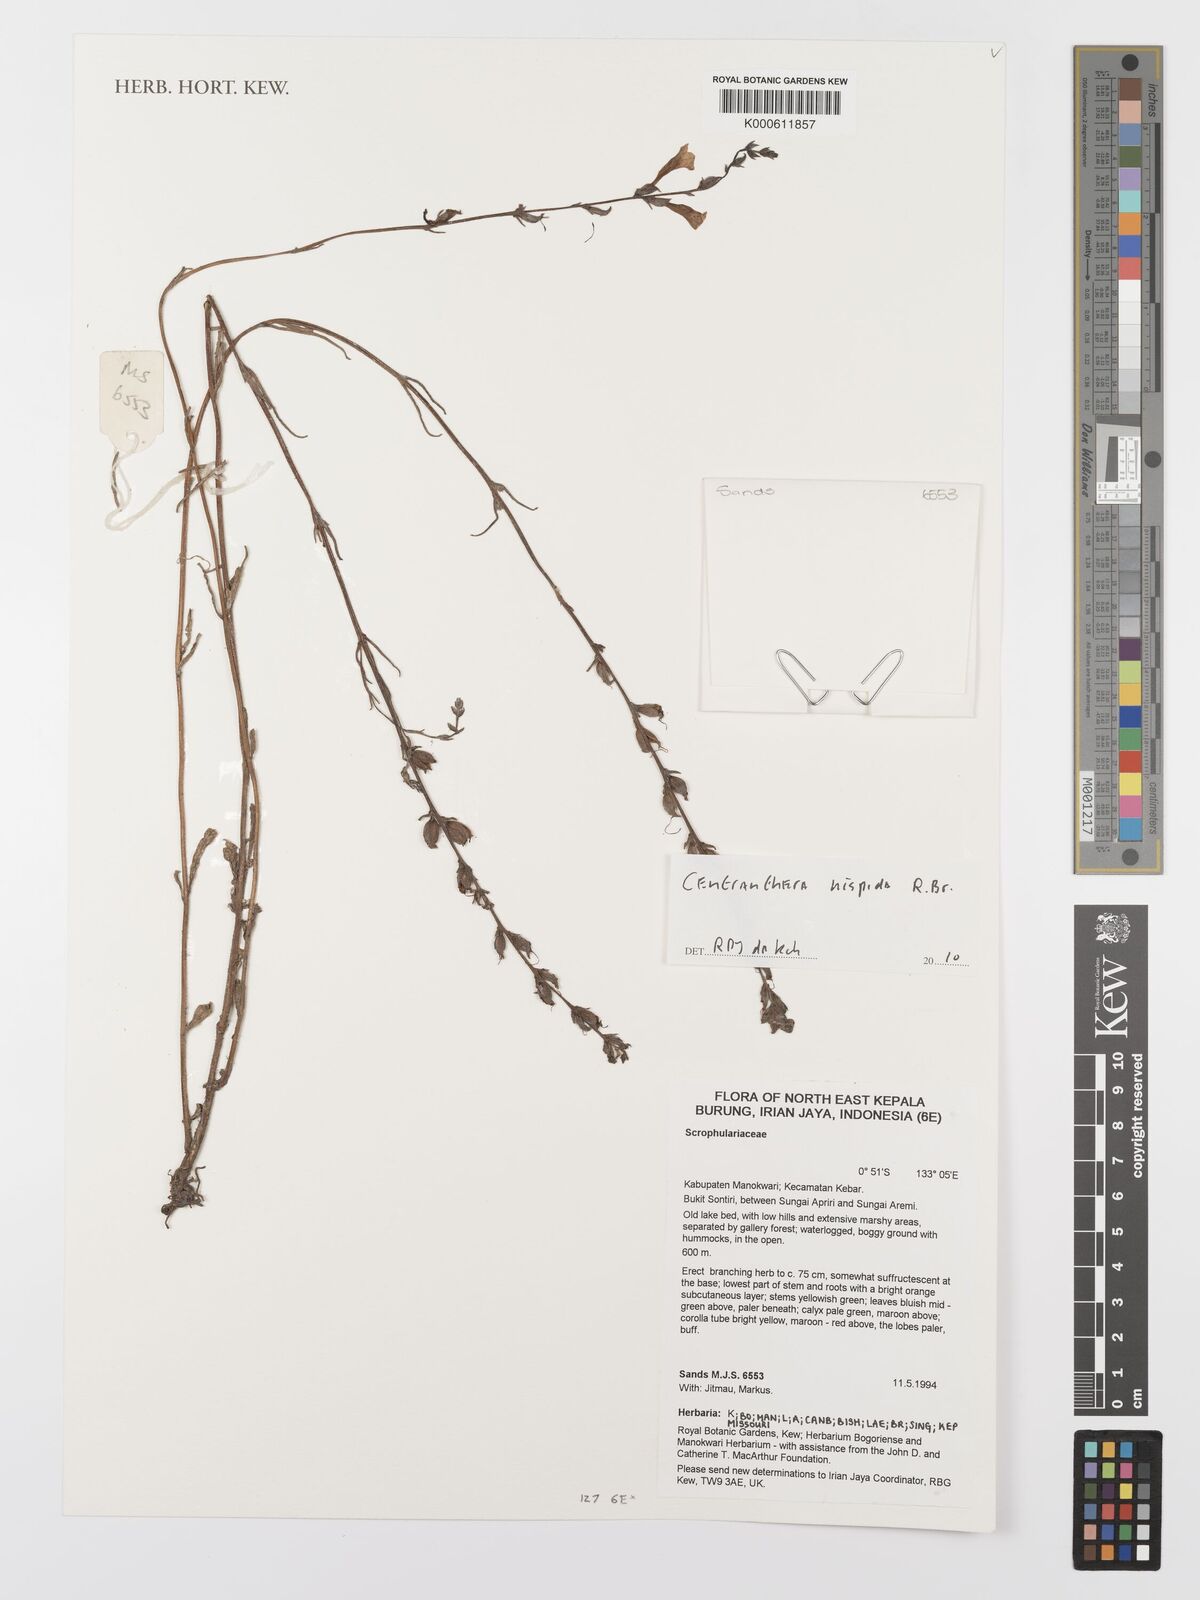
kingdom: Plantae
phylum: Tracheophyta
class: Magnoliopsida
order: Lamiales
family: Orobanchaceae
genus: Centranthera
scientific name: Centranthera hispida
